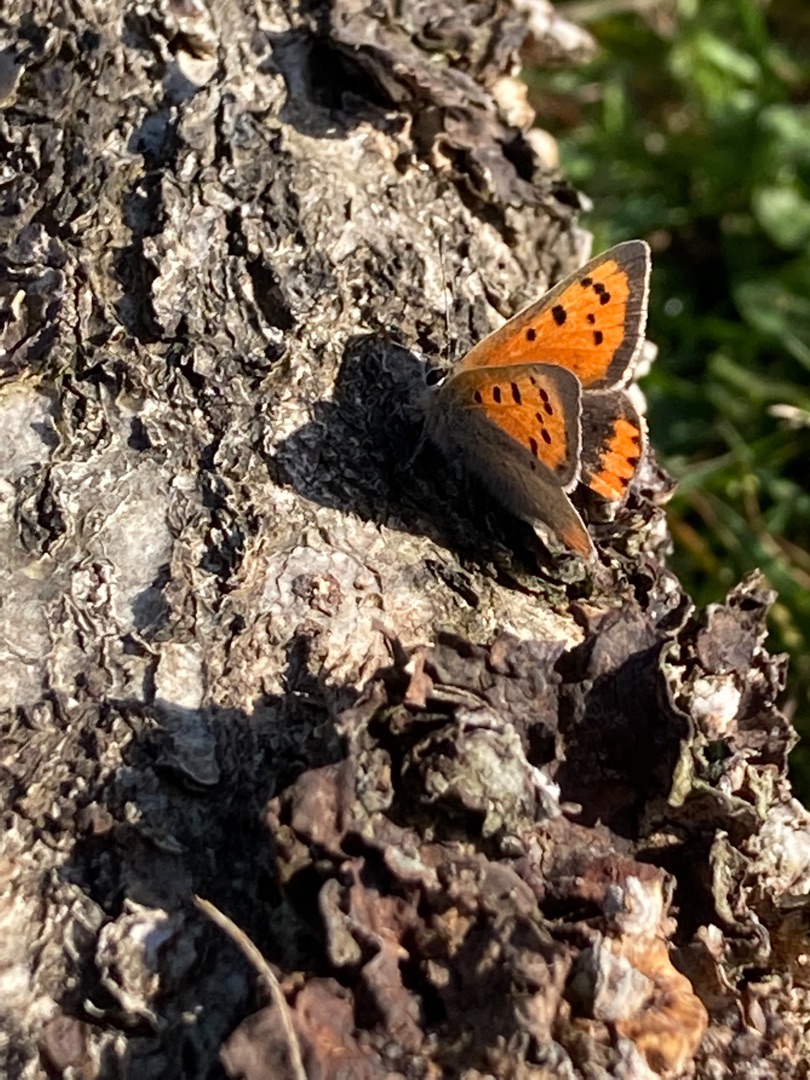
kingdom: Animalia
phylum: Arthropoda
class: Insecta
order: Lepidoptera
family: Lycaenidae
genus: Lycaena
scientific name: Lycaena phlaeas
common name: Lille ildfugl
